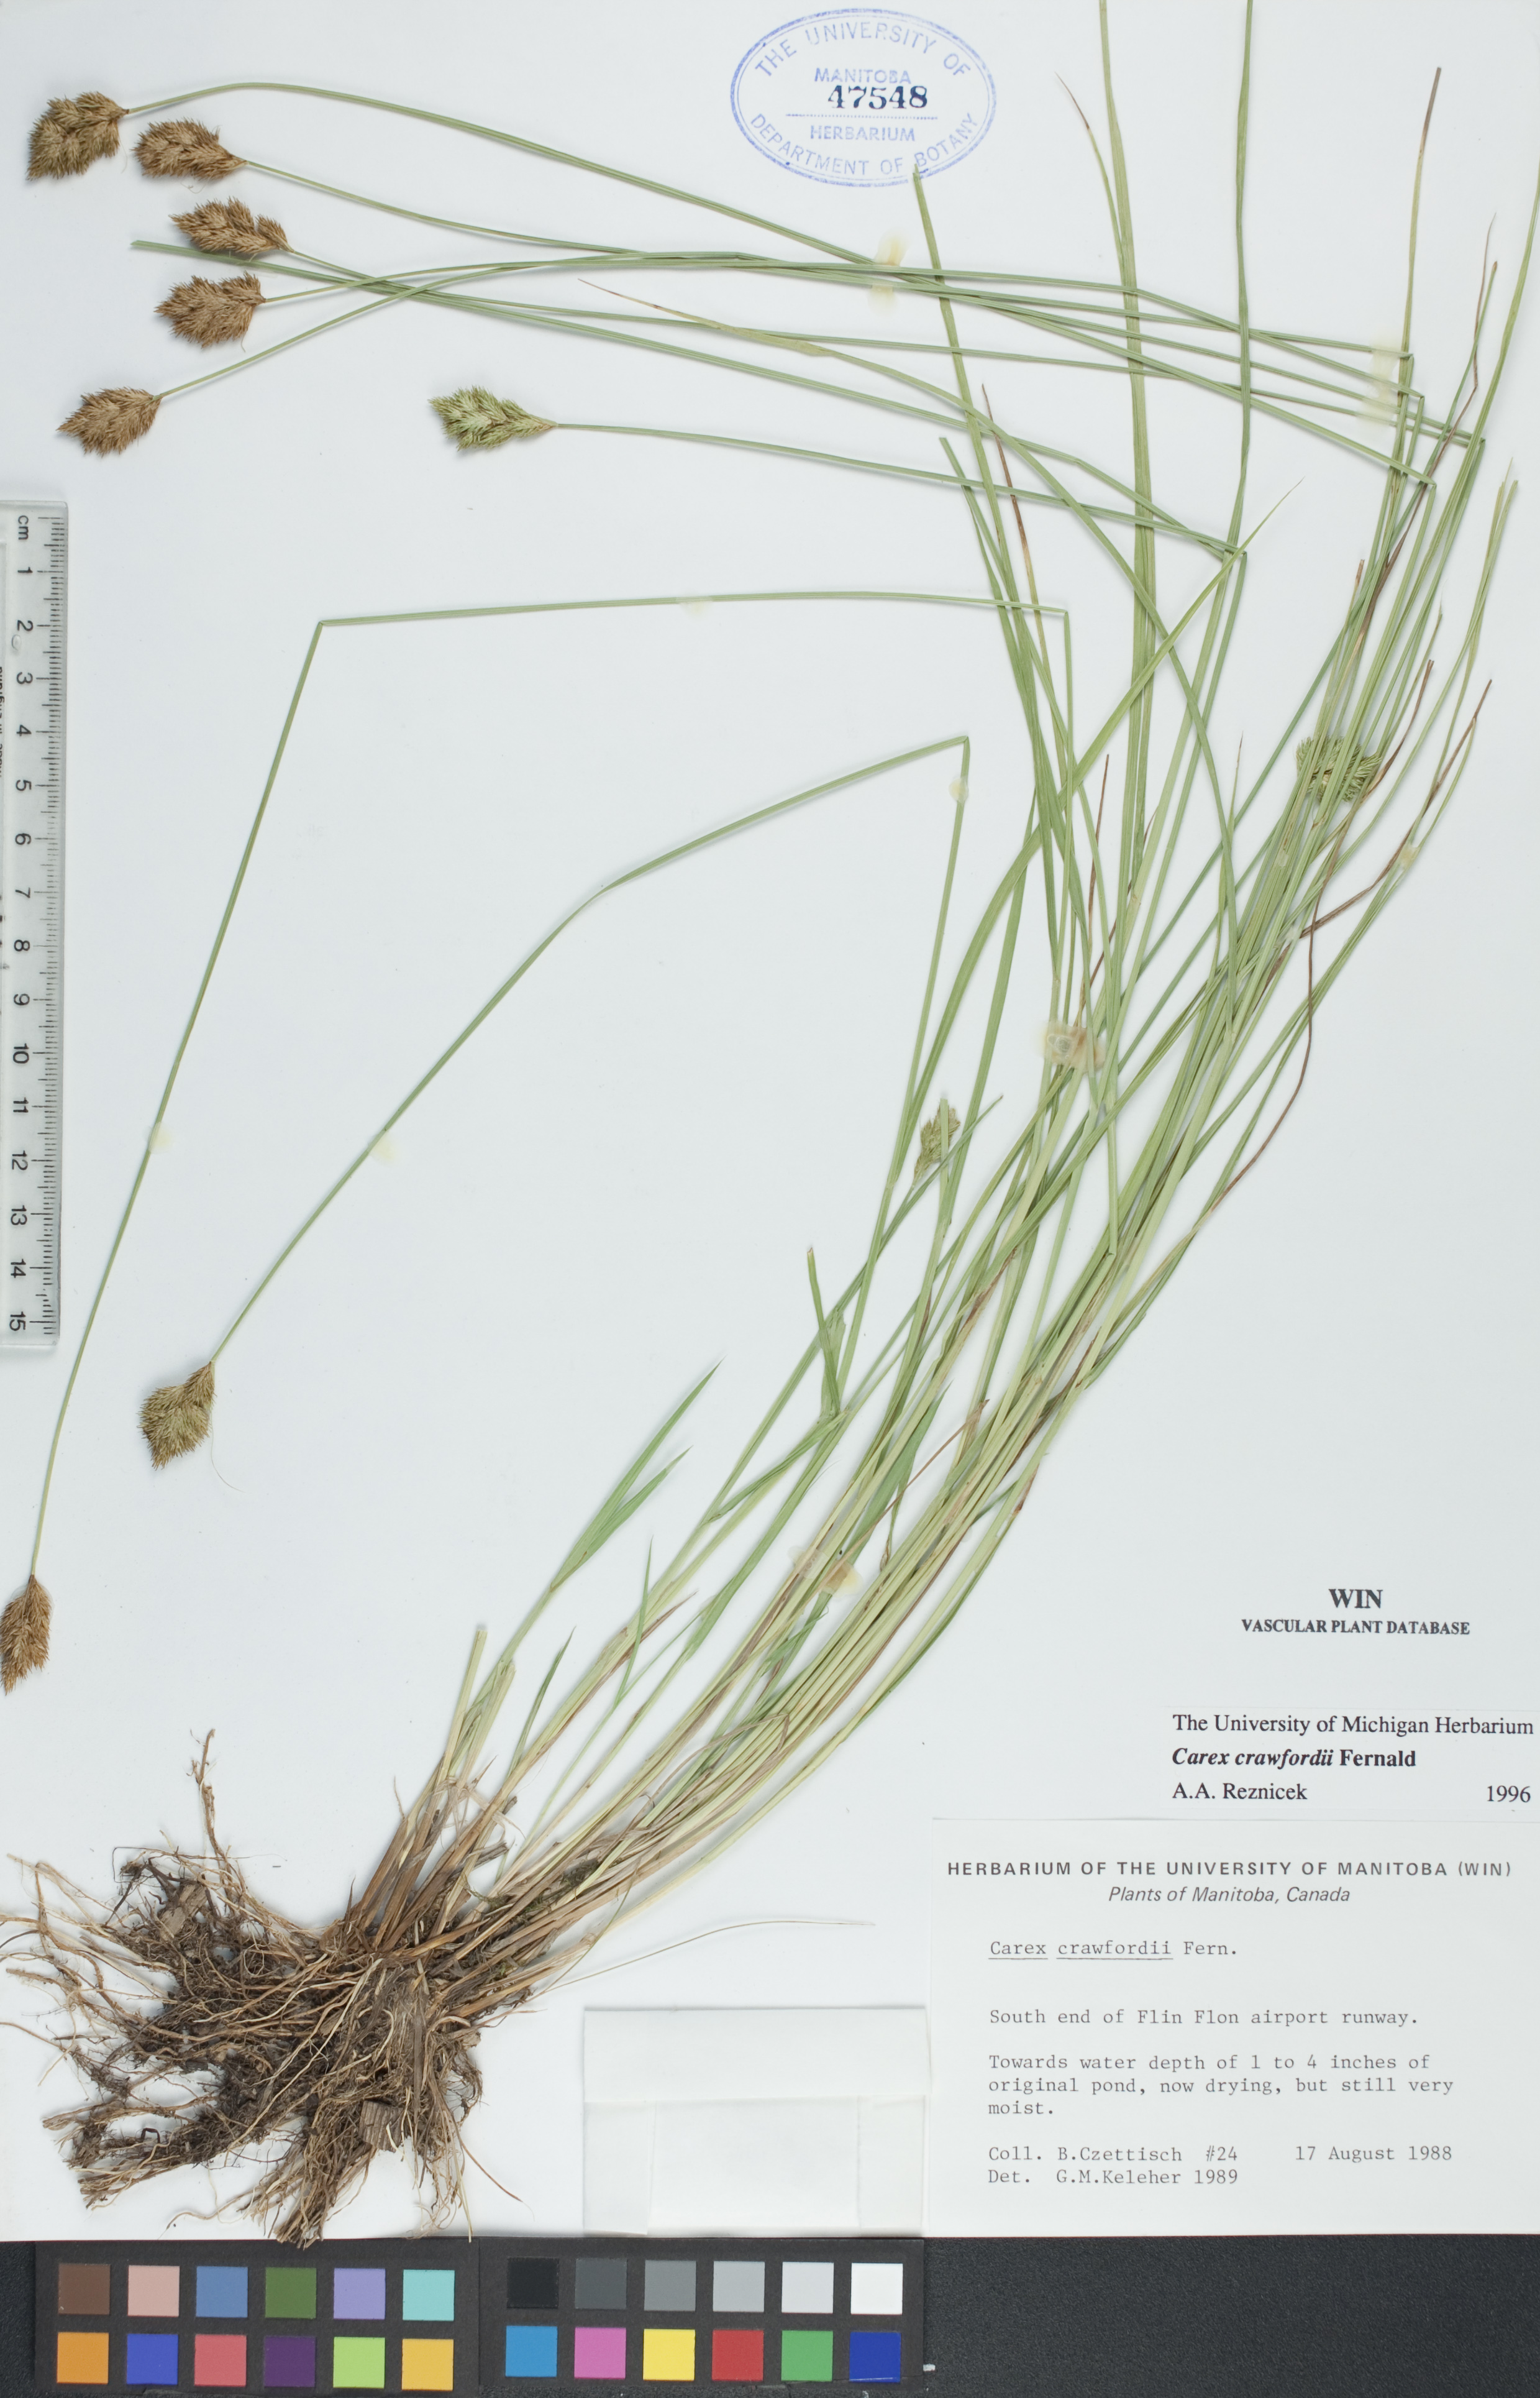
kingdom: Plantae
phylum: Tracheophyta
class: Liliopsida
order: Poales
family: Cyperaceae
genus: Carex
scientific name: Carex crawfordii
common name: Crawford's sedge
